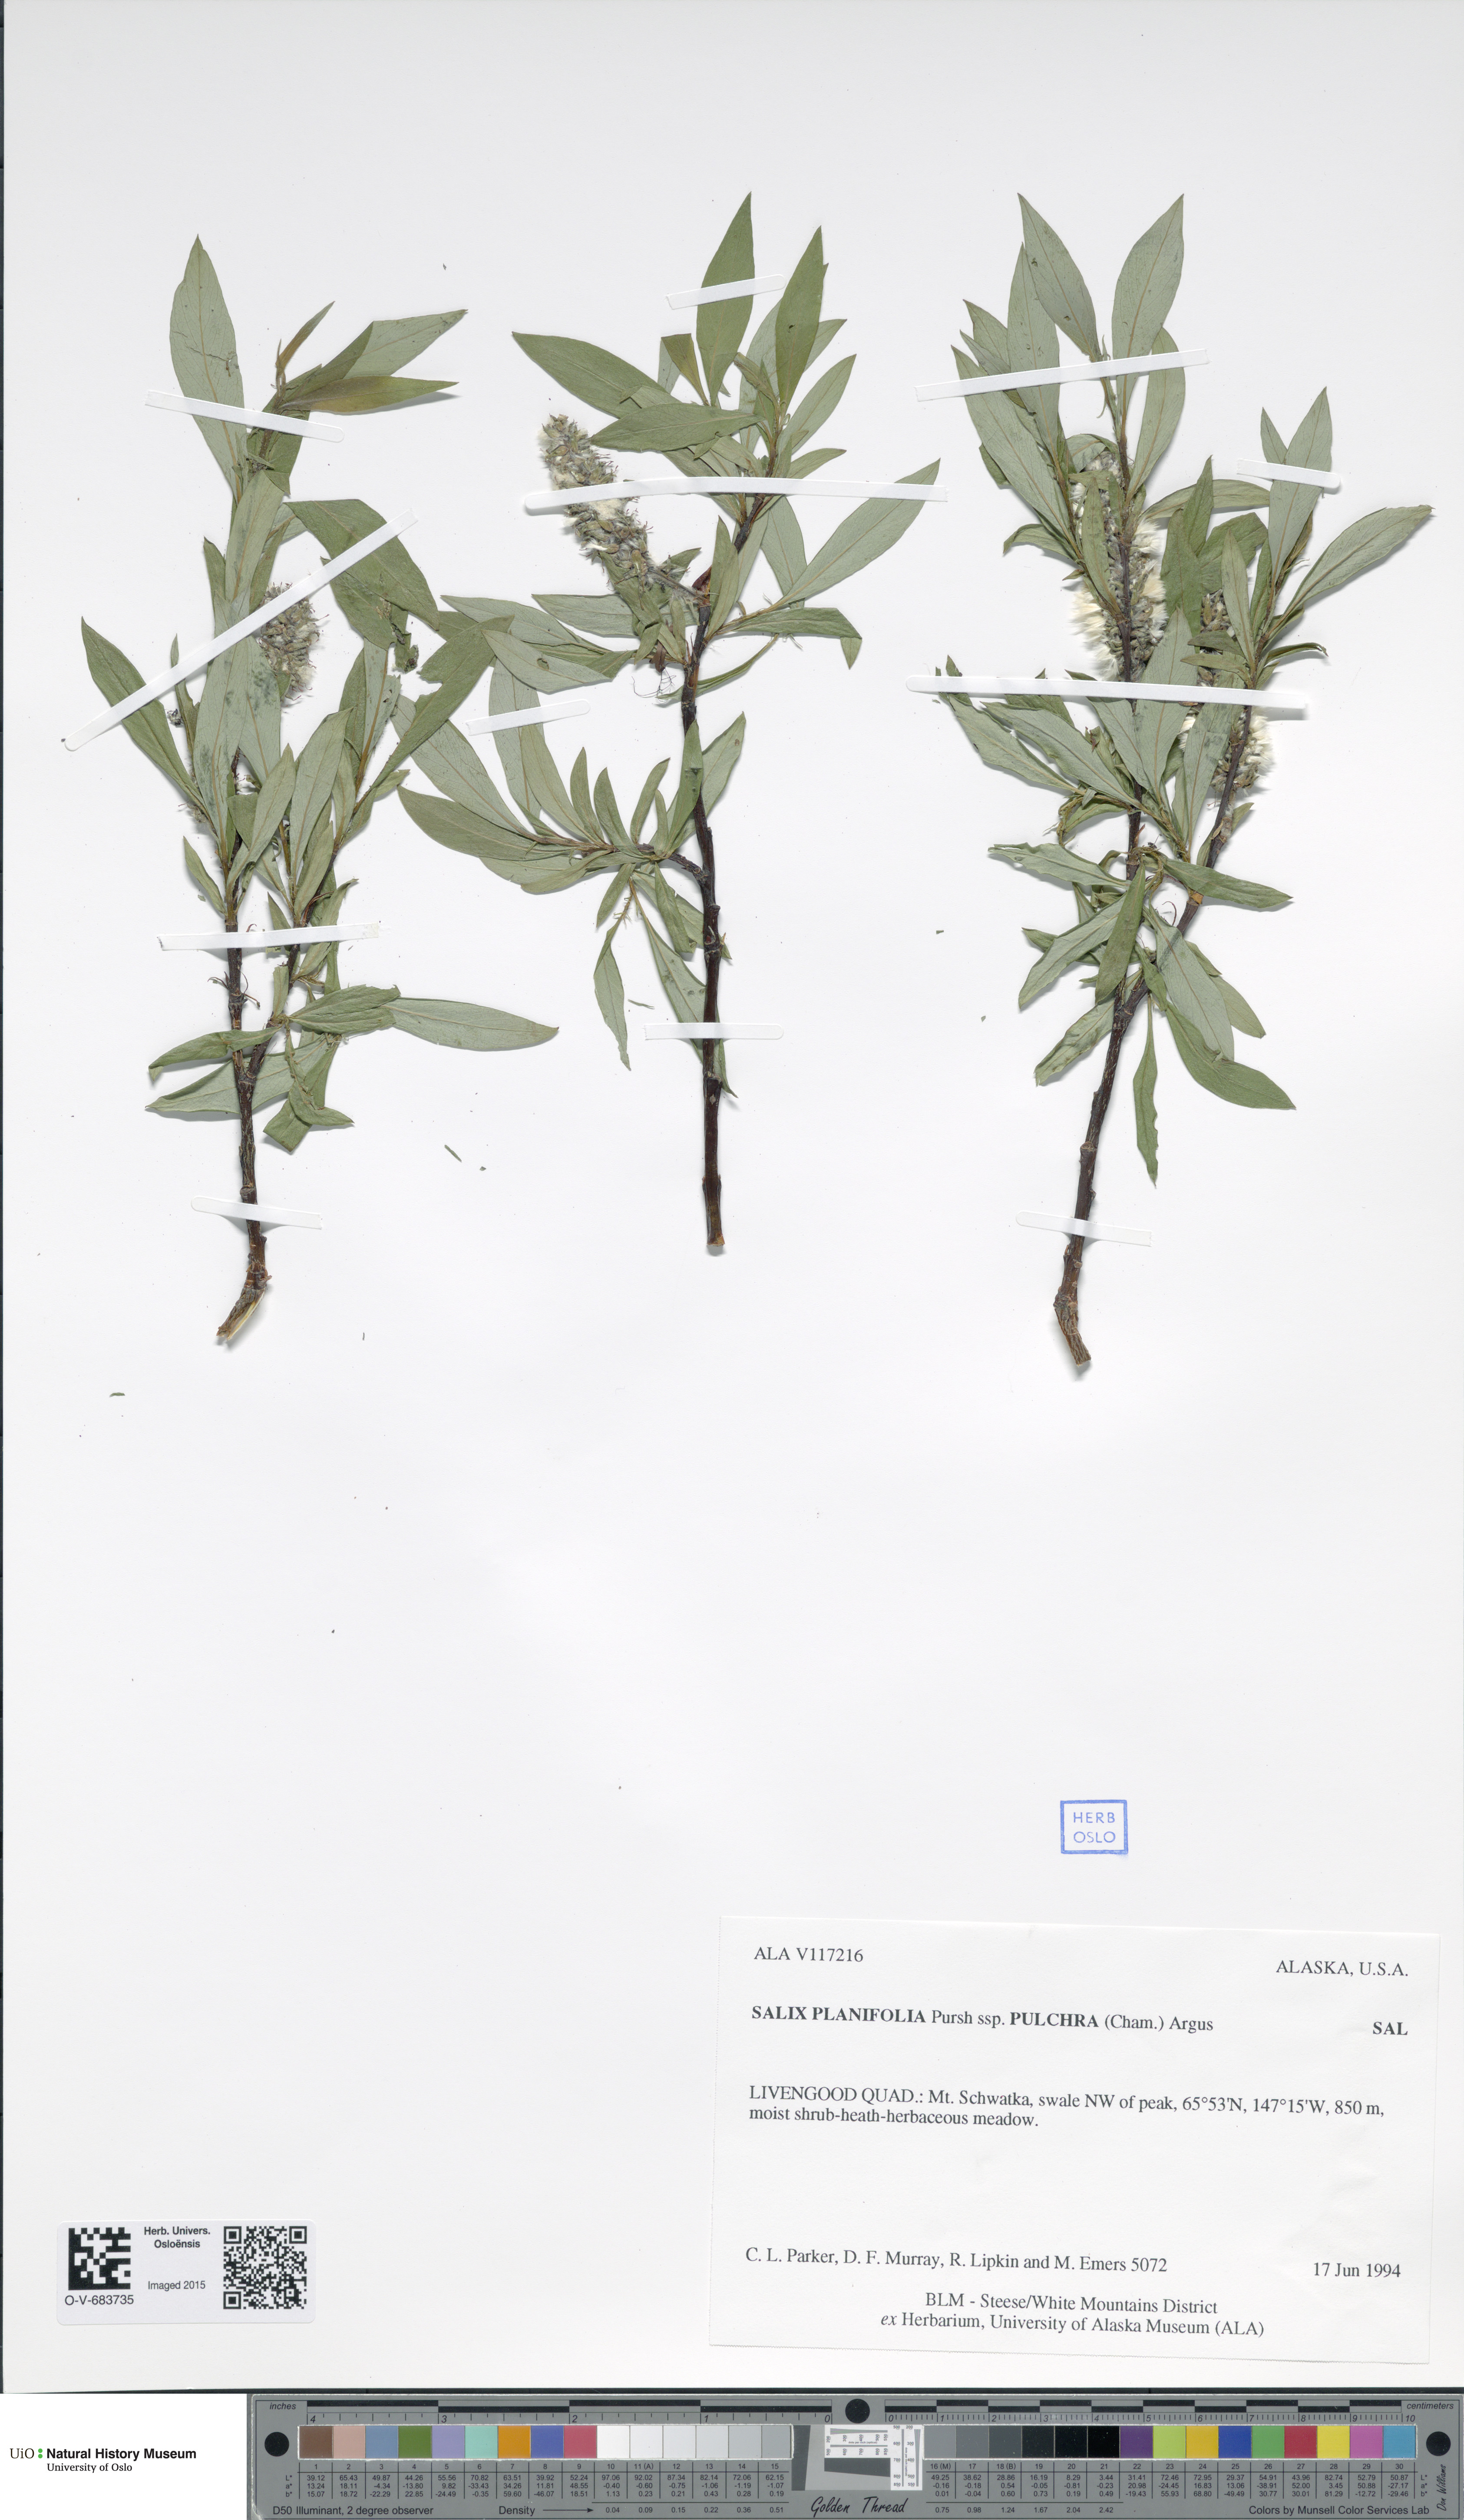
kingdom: Plantae
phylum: Tracheophyta
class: Magnoliopsida
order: Malpighiales
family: Salicaceae
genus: Salix
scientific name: Salix pulchra
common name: Diamond-leaved willow
